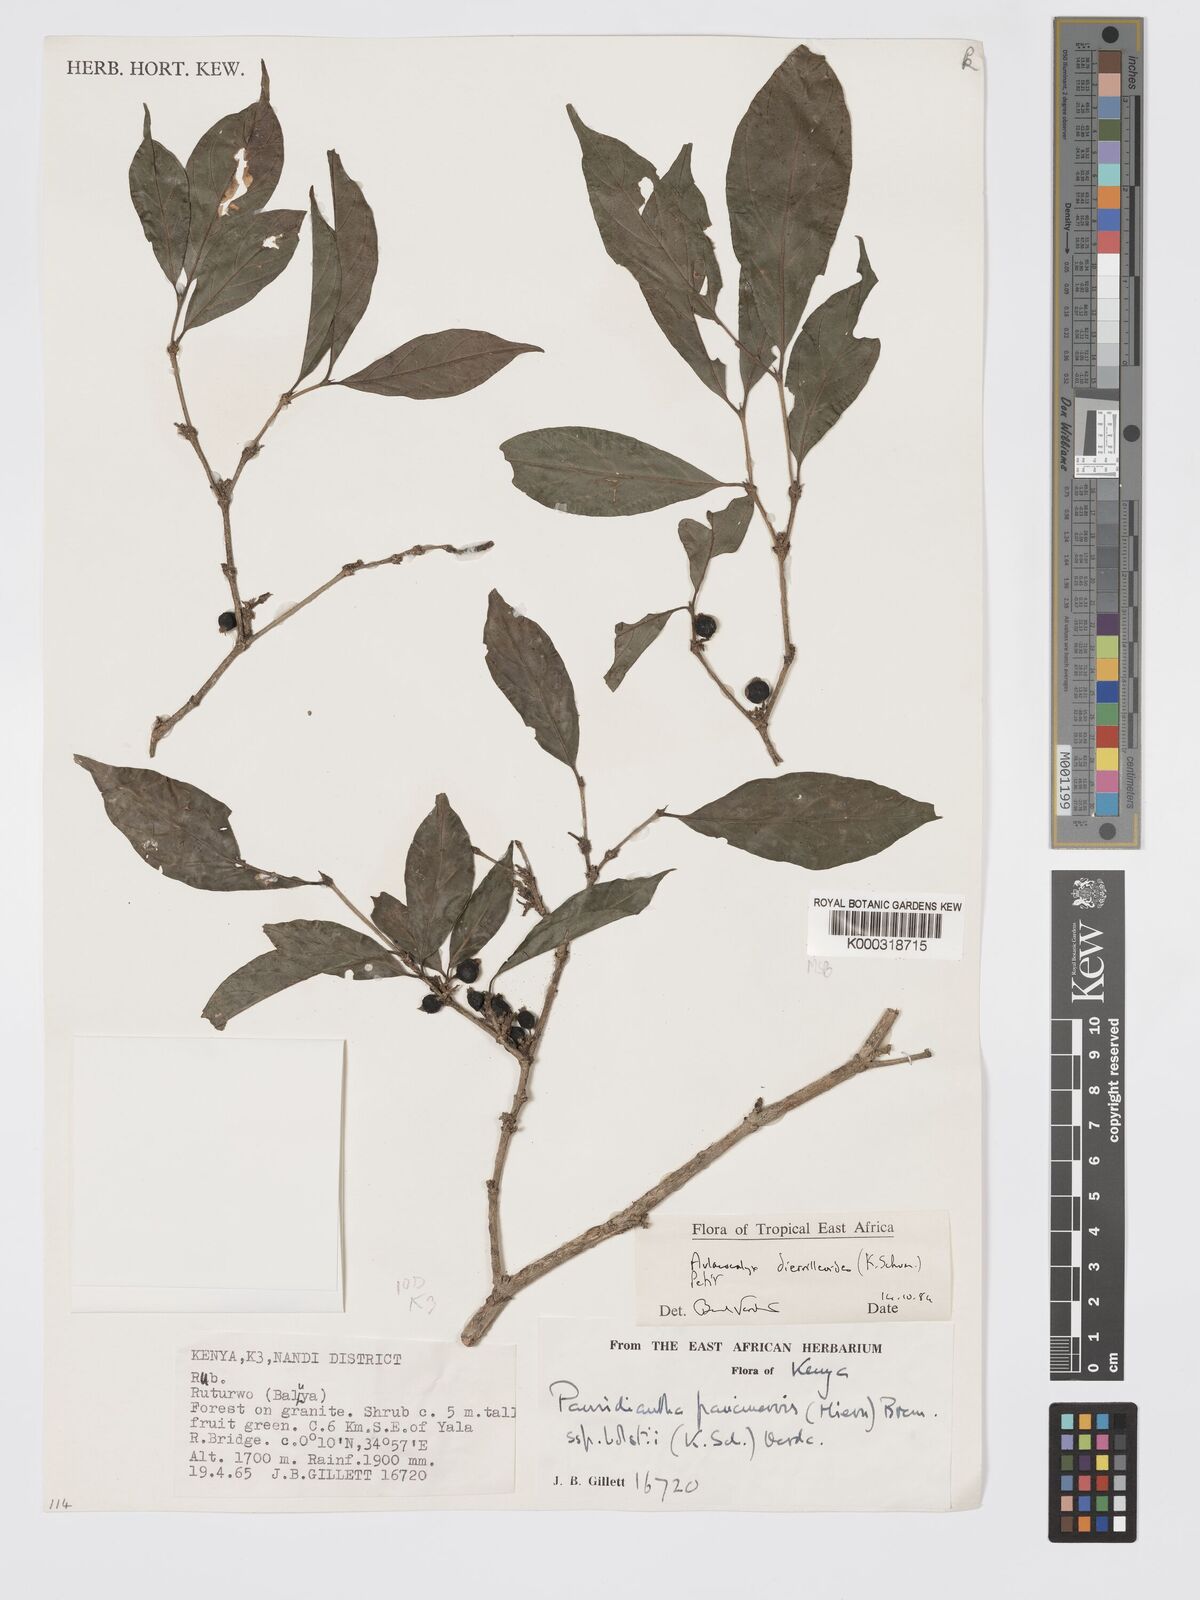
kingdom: Plantae
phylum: Tracheophyta
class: Magnoliopsida
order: Gentianales
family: Rubiaceae
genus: Heinsenia
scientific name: Heinsenia diervilleoides
